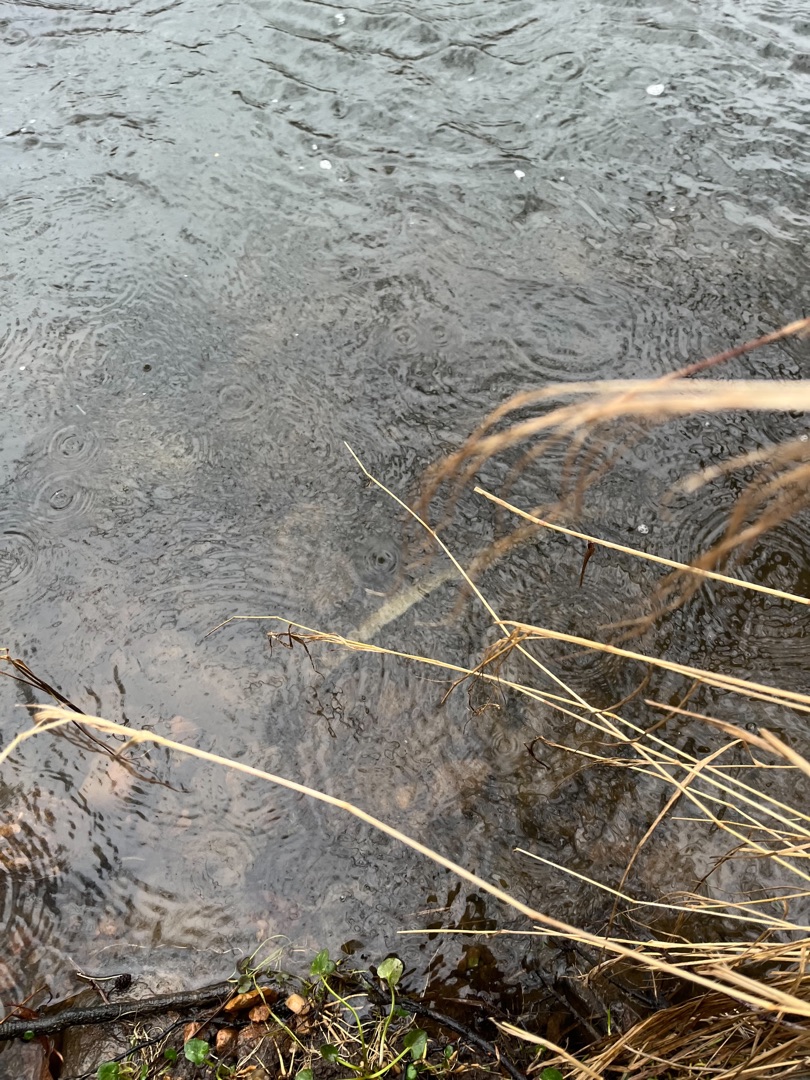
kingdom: Animalia
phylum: Chordata
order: Anguilliformes
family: Anguillidae
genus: Anguilla
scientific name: Anguilla anguilla
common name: Europæisk ål
